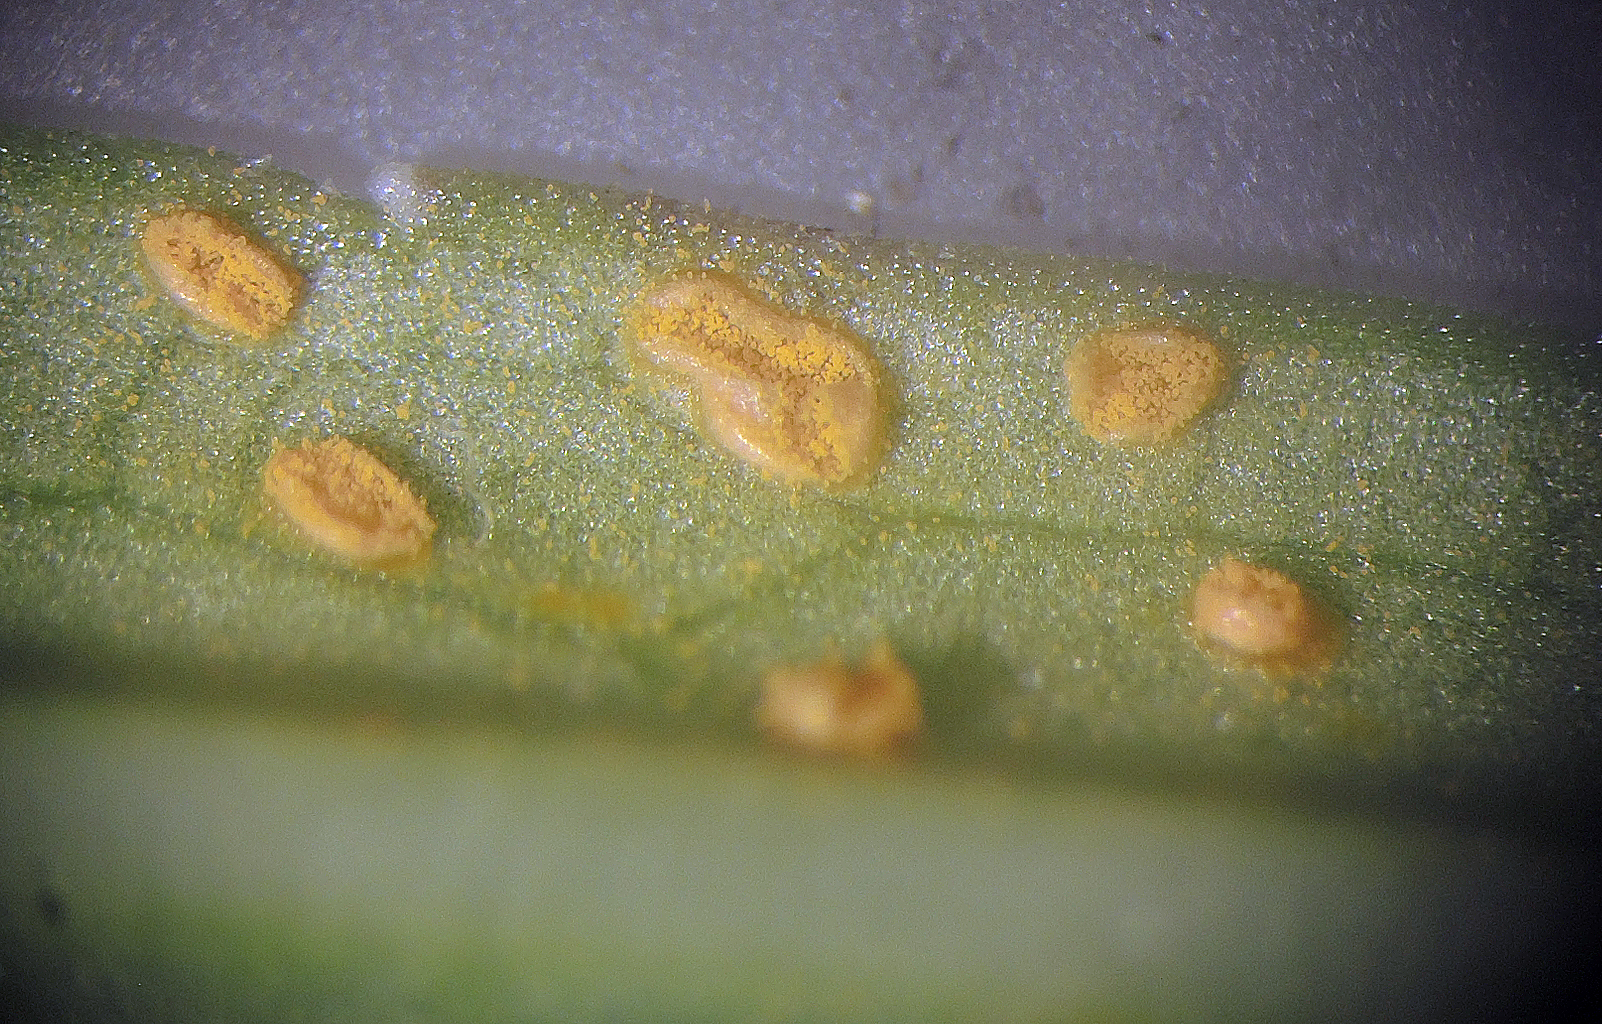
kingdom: Fungi
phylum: Basidiomycota
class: Pucciniomycetes
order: Pucciniales
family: Coleosporiaceae
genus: Coleosporium
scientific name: Coleosporium campanulae
